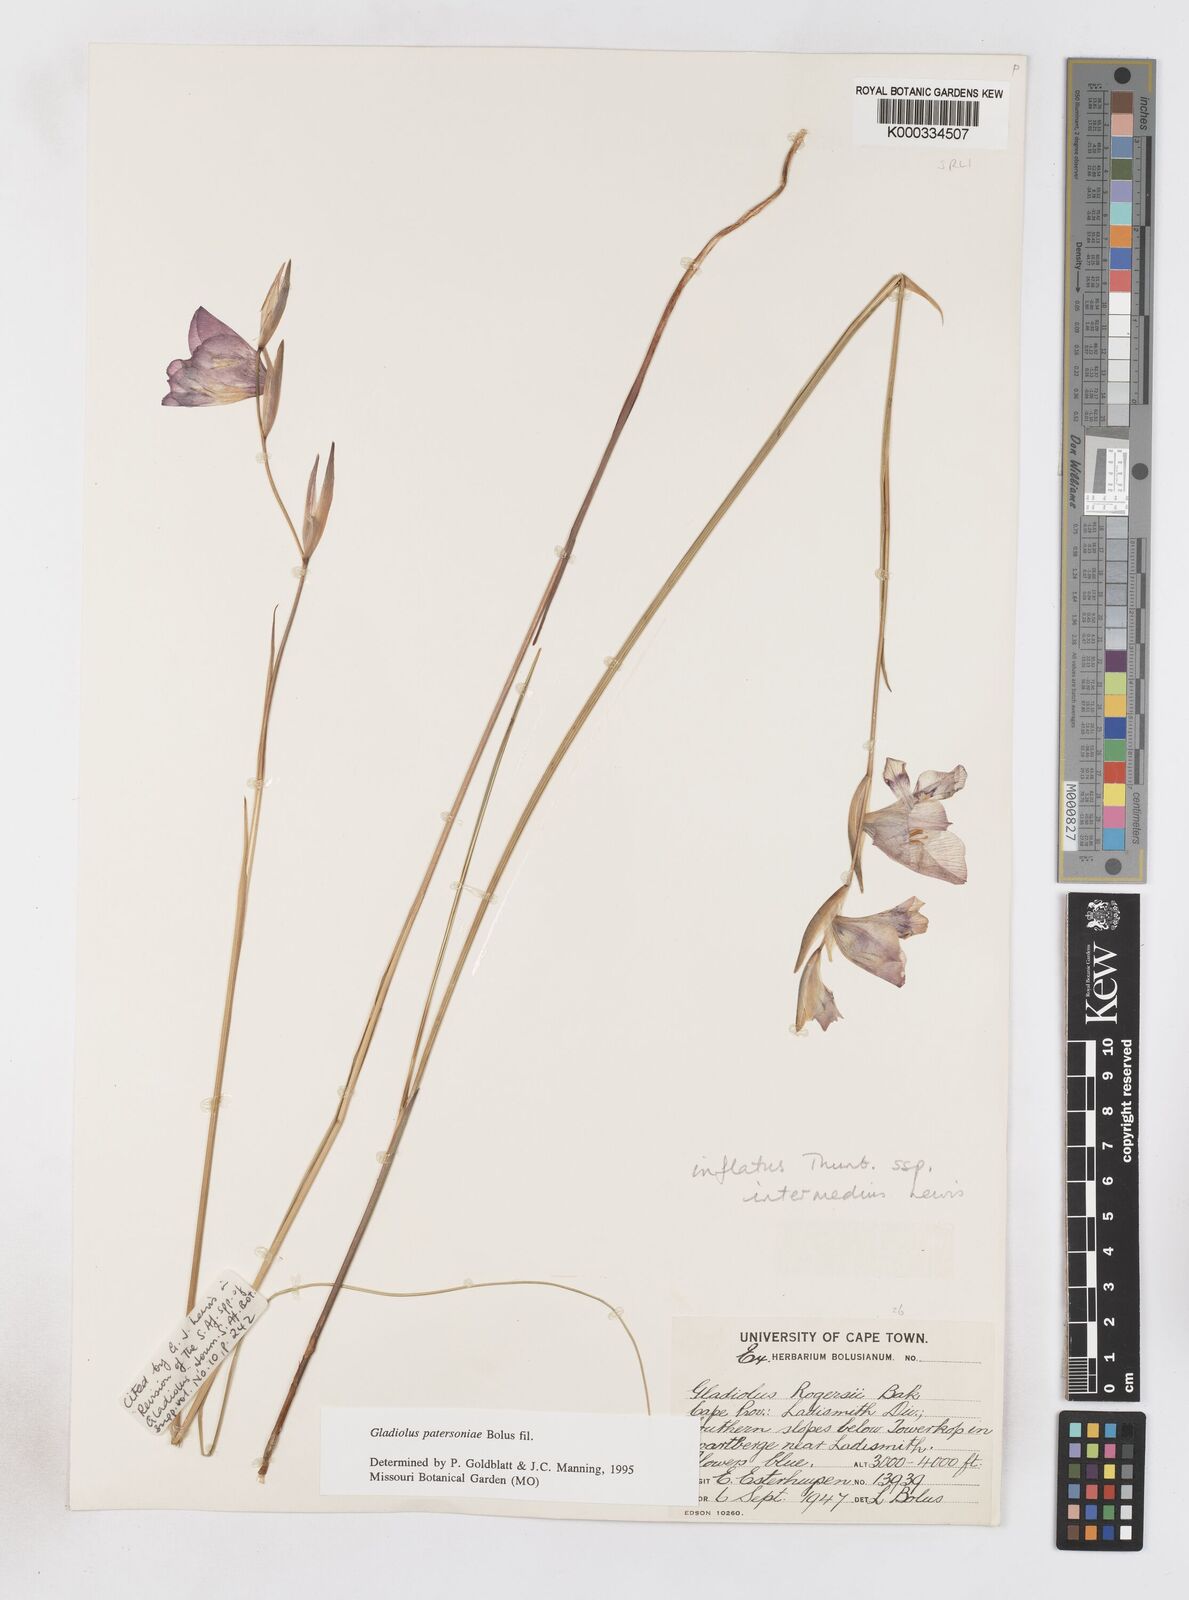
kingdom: Plantae
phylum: Tracheophyta
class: Liliopsida
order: Asparagales
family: Iridaceae
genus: Gladiolus
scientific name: Gladiolus patersoniae
